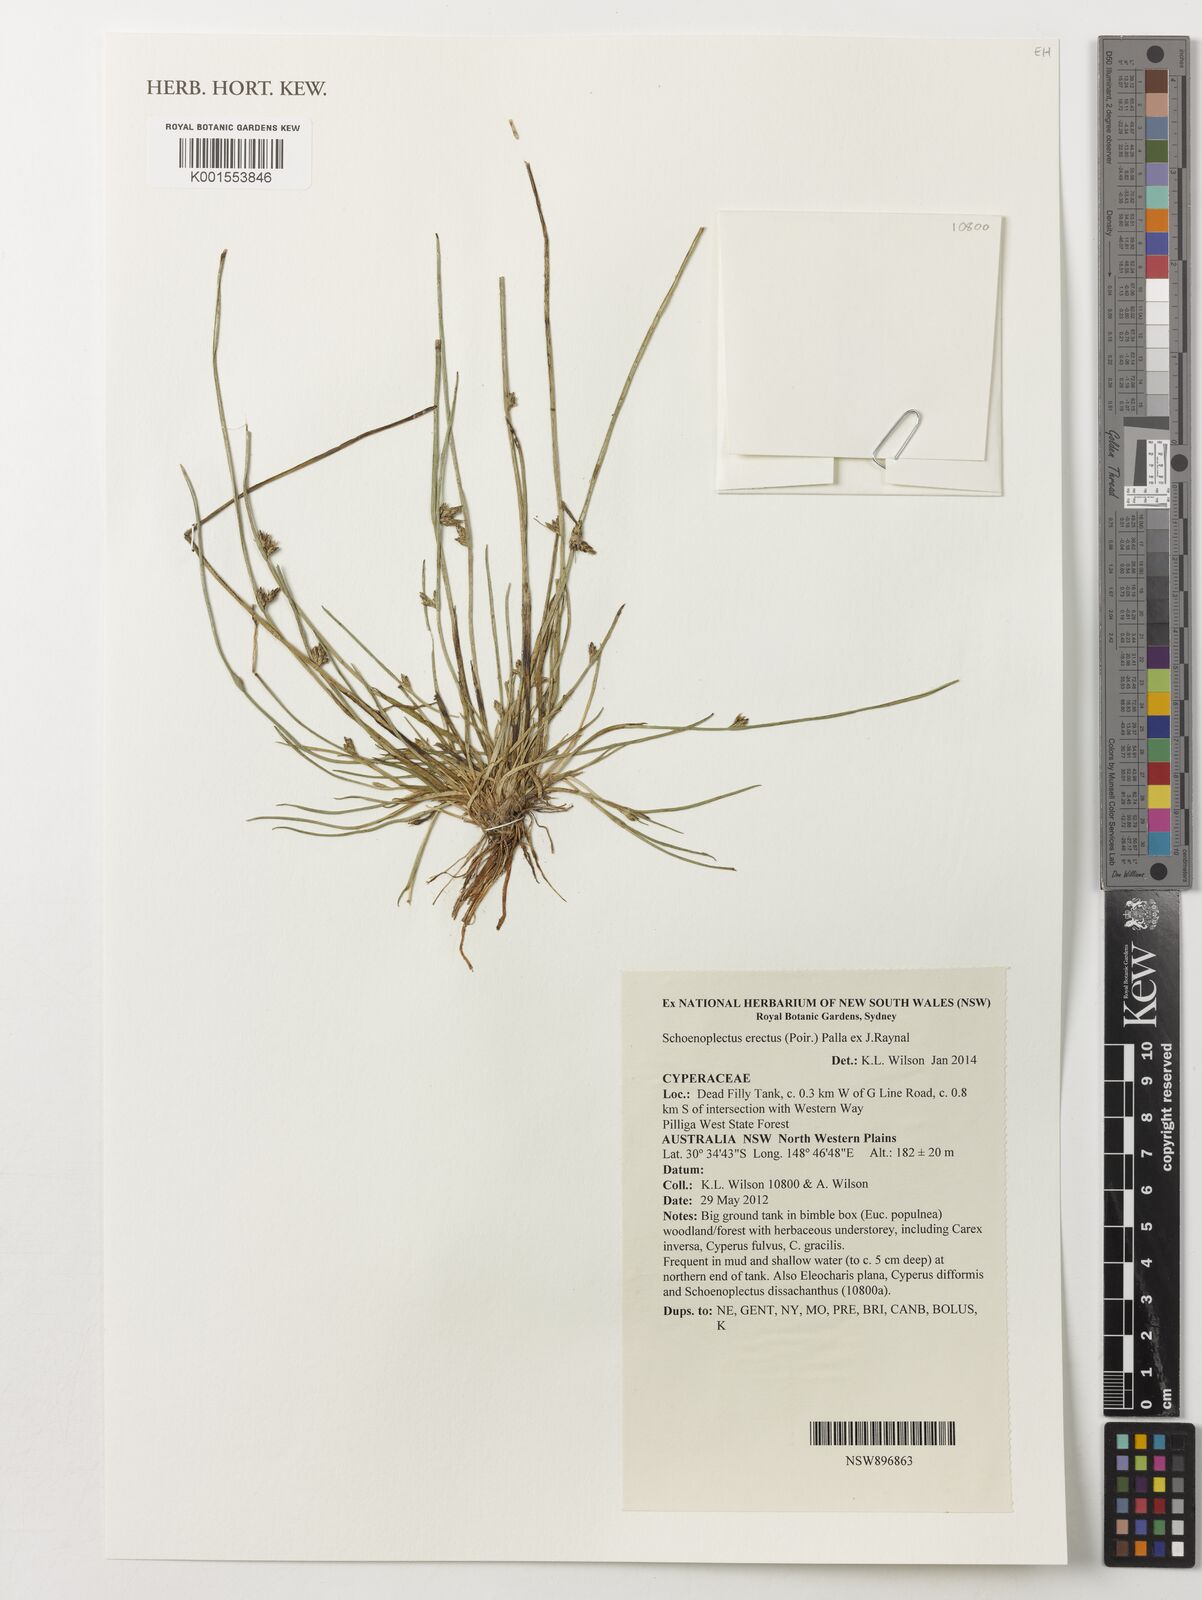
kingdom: Plantae
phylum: Tracheophyta
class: Liliopsida
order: Poales
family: Cyperaceae
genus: Schoenoplectiella
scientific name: Schoenoplectiella erecta
